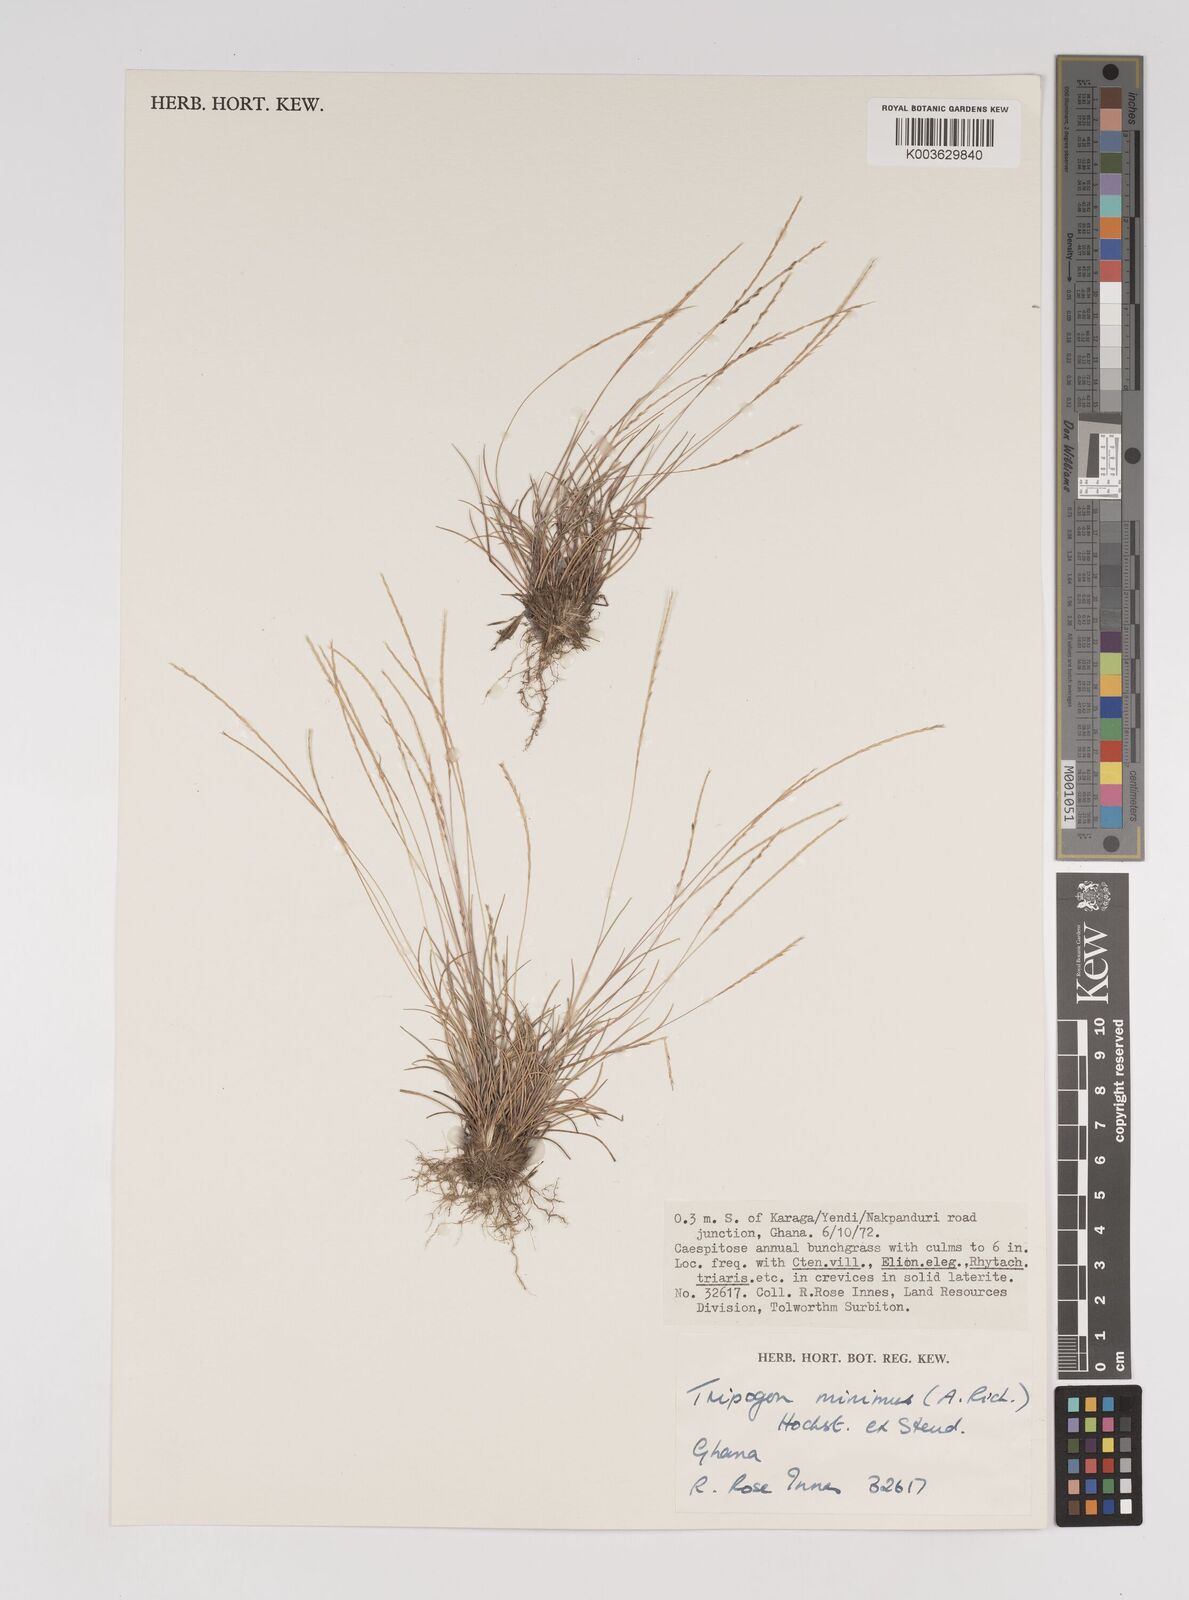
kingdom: Plantae
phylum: Tracheophyta
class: Liliopsida
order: Poales
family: Poaceae
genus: Tripogonella
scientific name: Tripogonella minima
